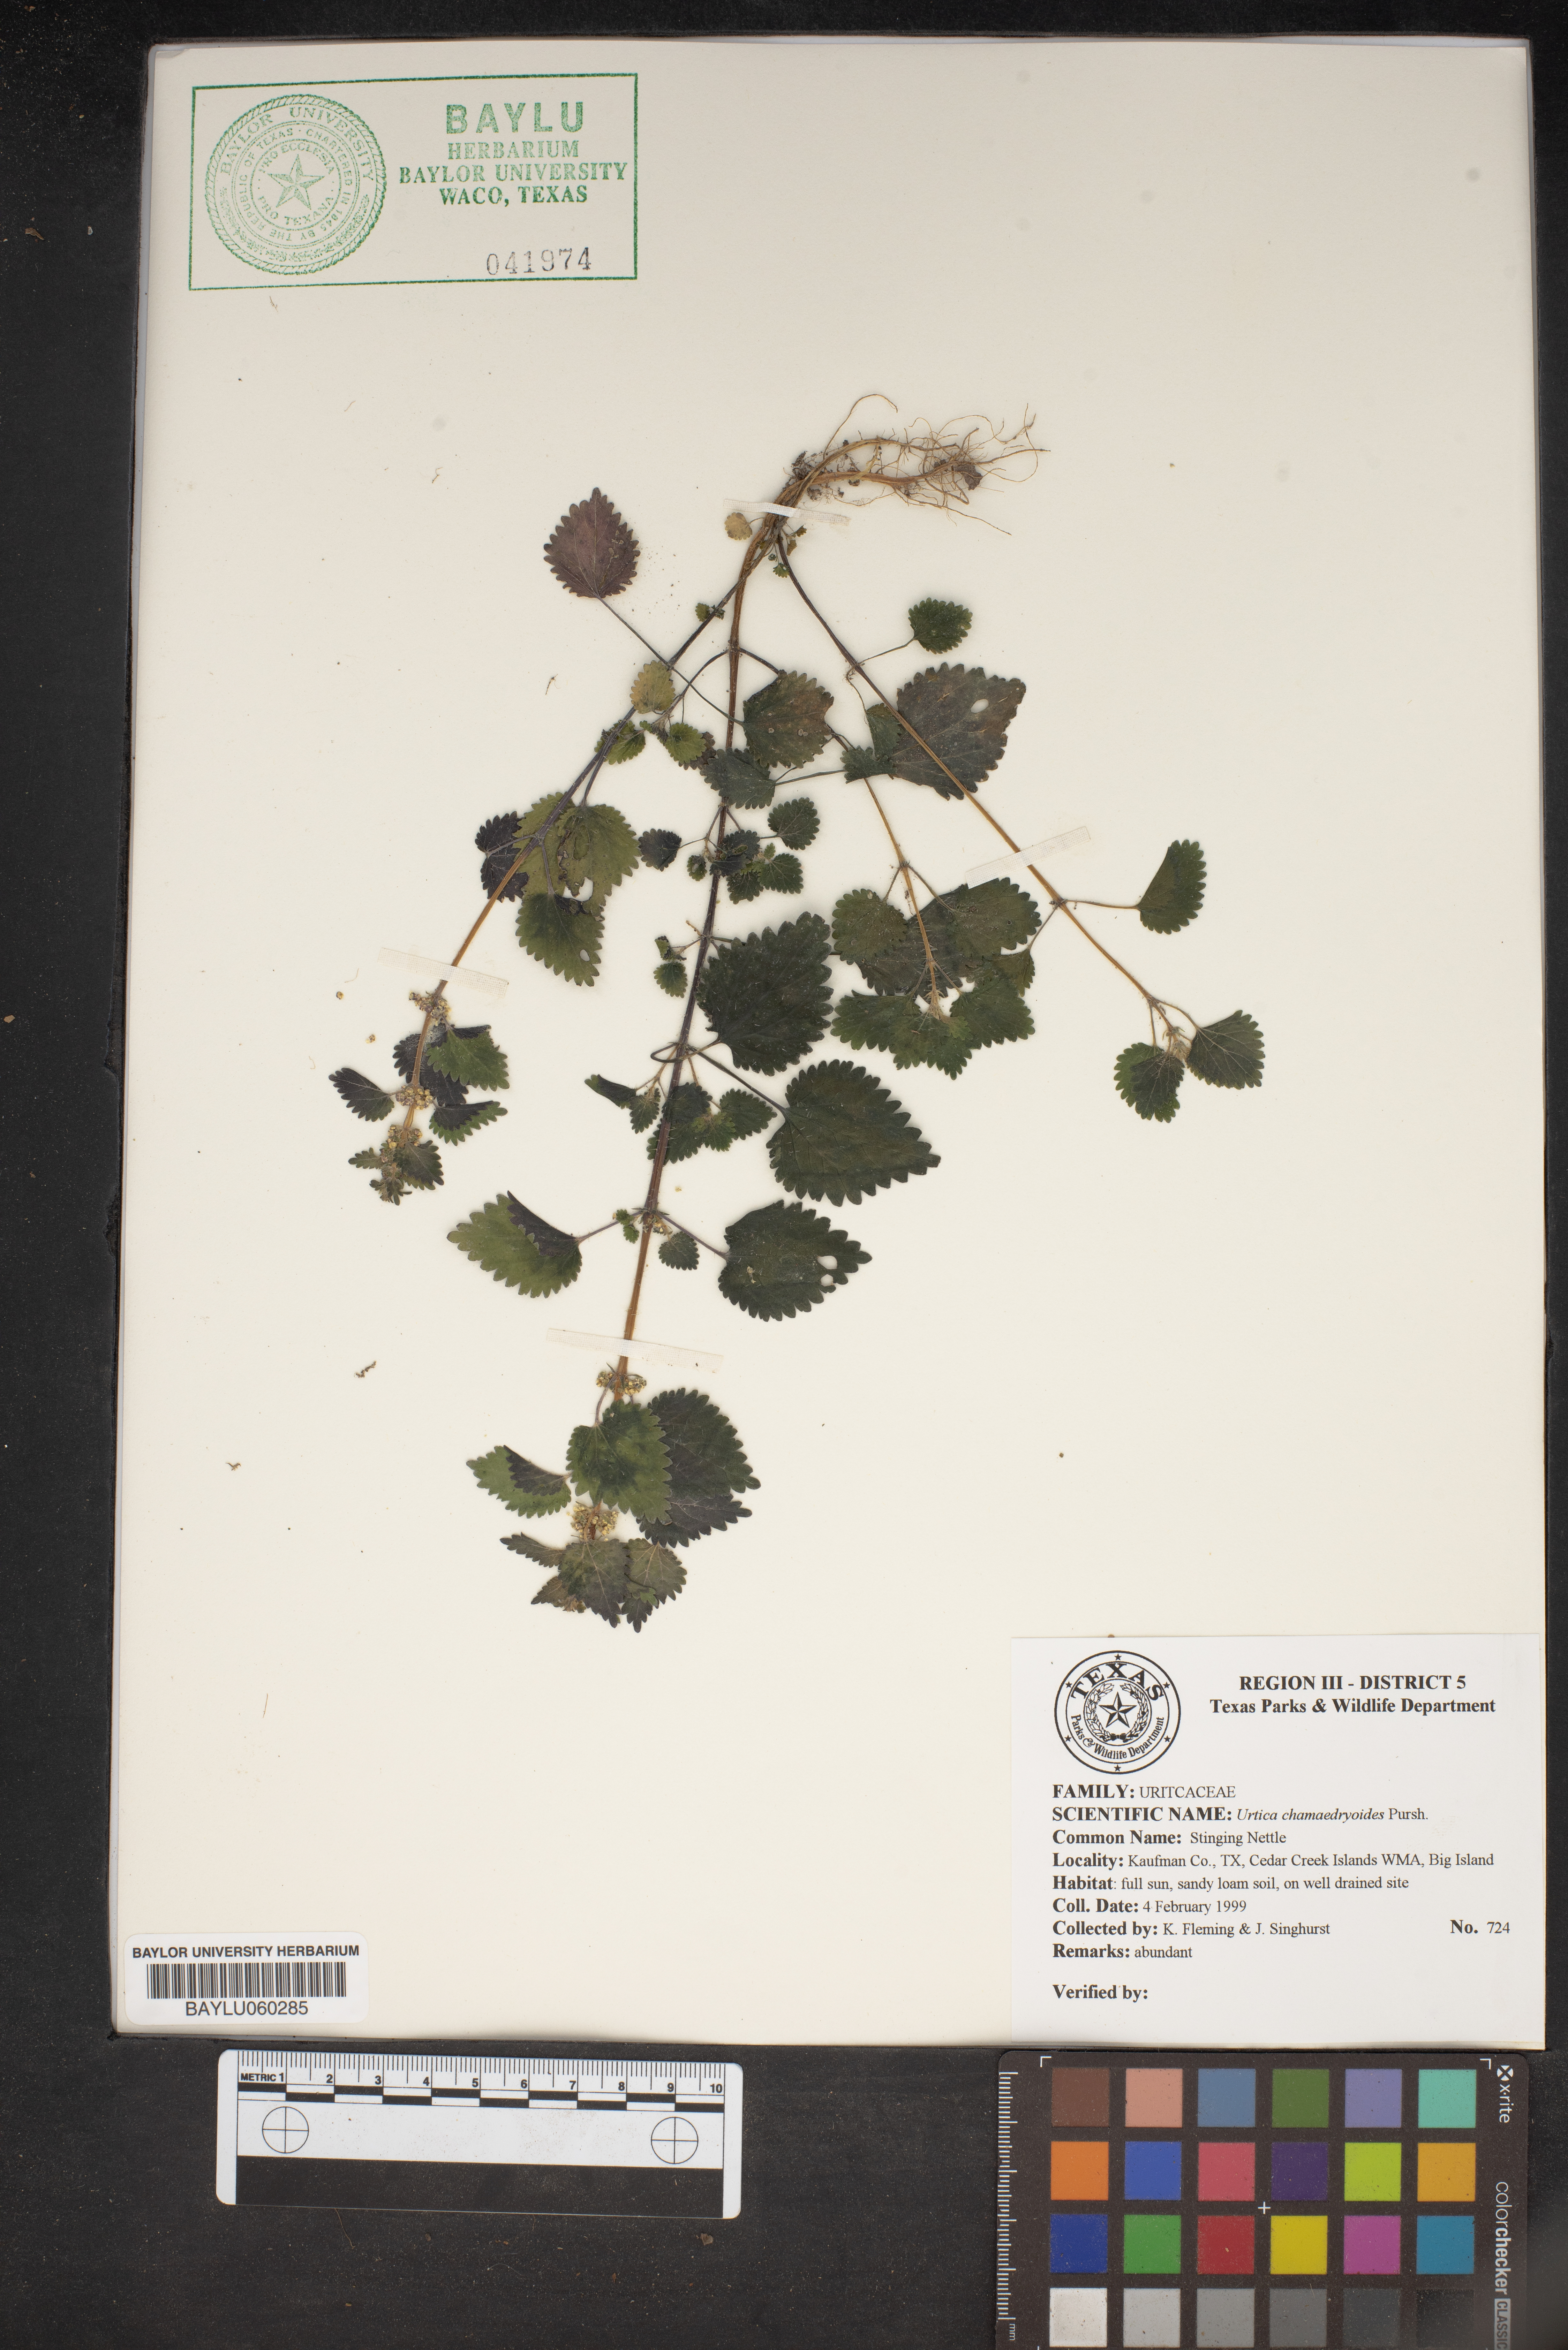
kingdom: Plantae
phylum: Tracheophyta
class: Magnoliopsida
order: Rosales
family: Urticaceae
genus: Urtica
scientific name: Urtica chamaedryoides
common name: Heart-leaf nettle
